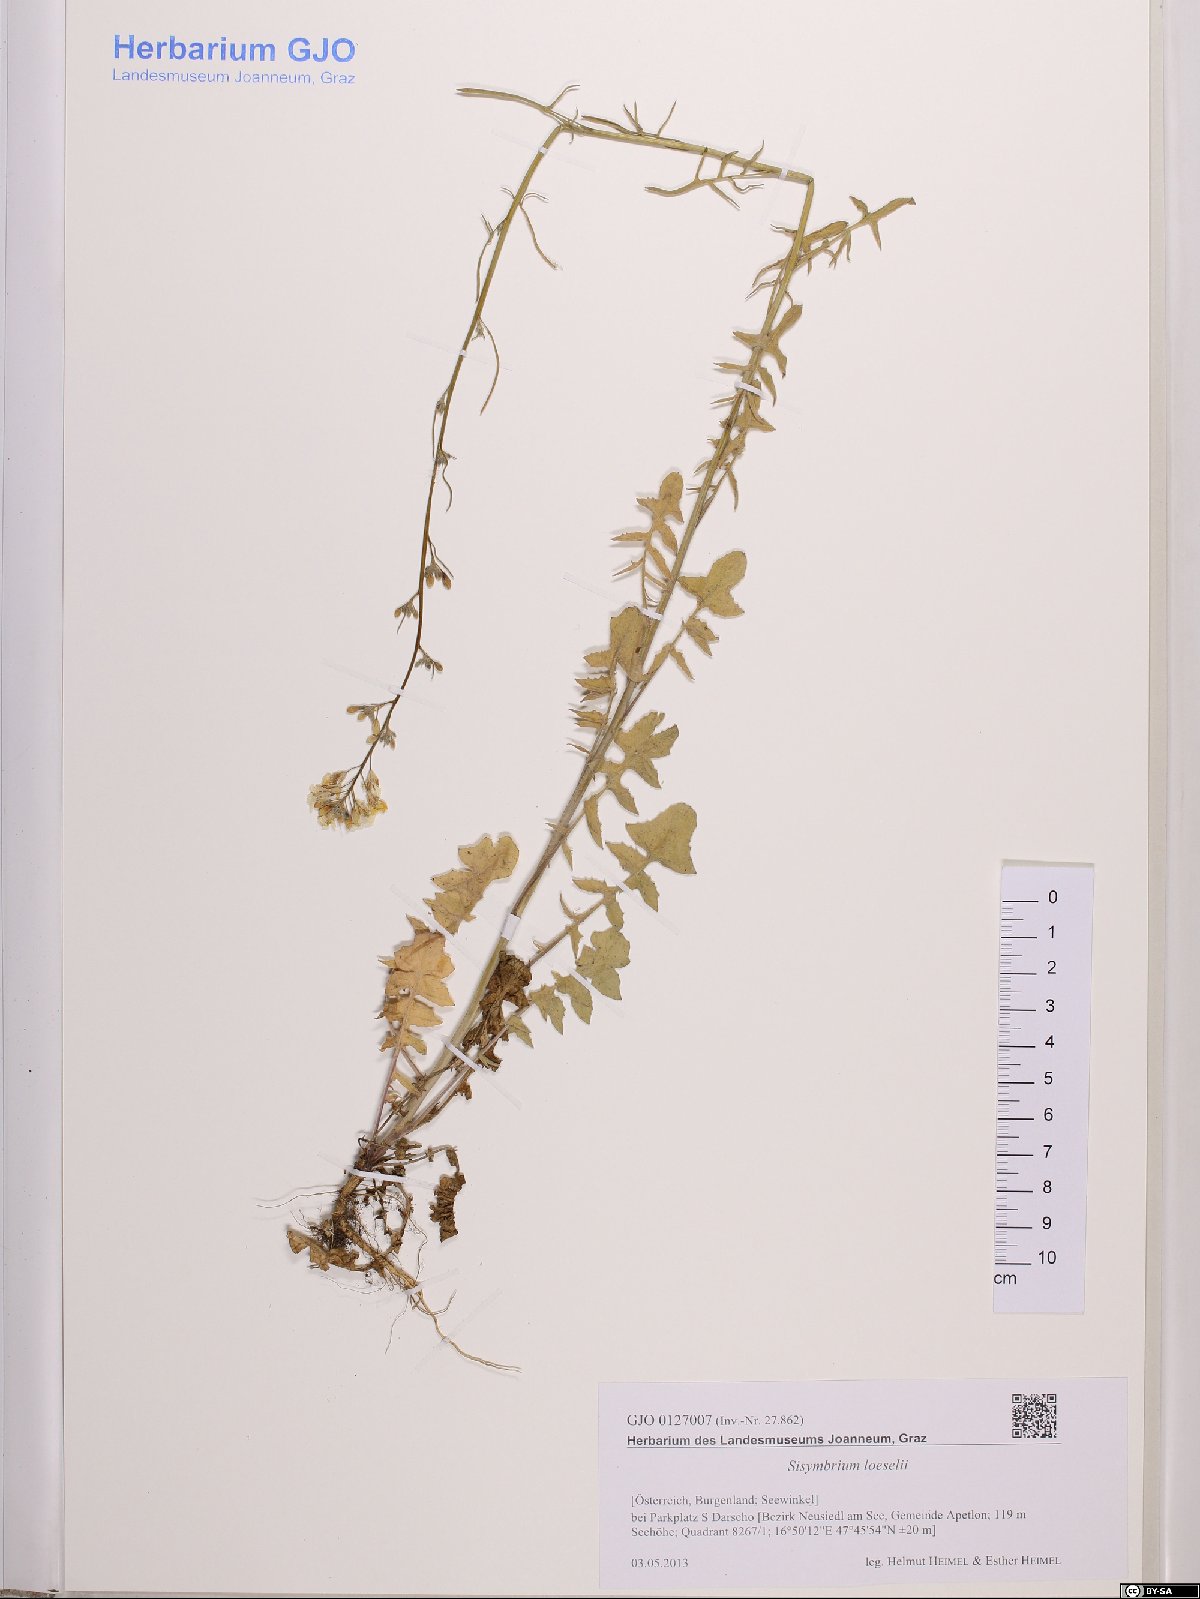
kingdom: Plantae
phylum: Tracheophyta
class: Magnoliopsida
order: Brassicales
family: Brassicaceae
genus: Sisymbrium
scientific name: Sisymbrium loeselii
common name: False london-rocket
